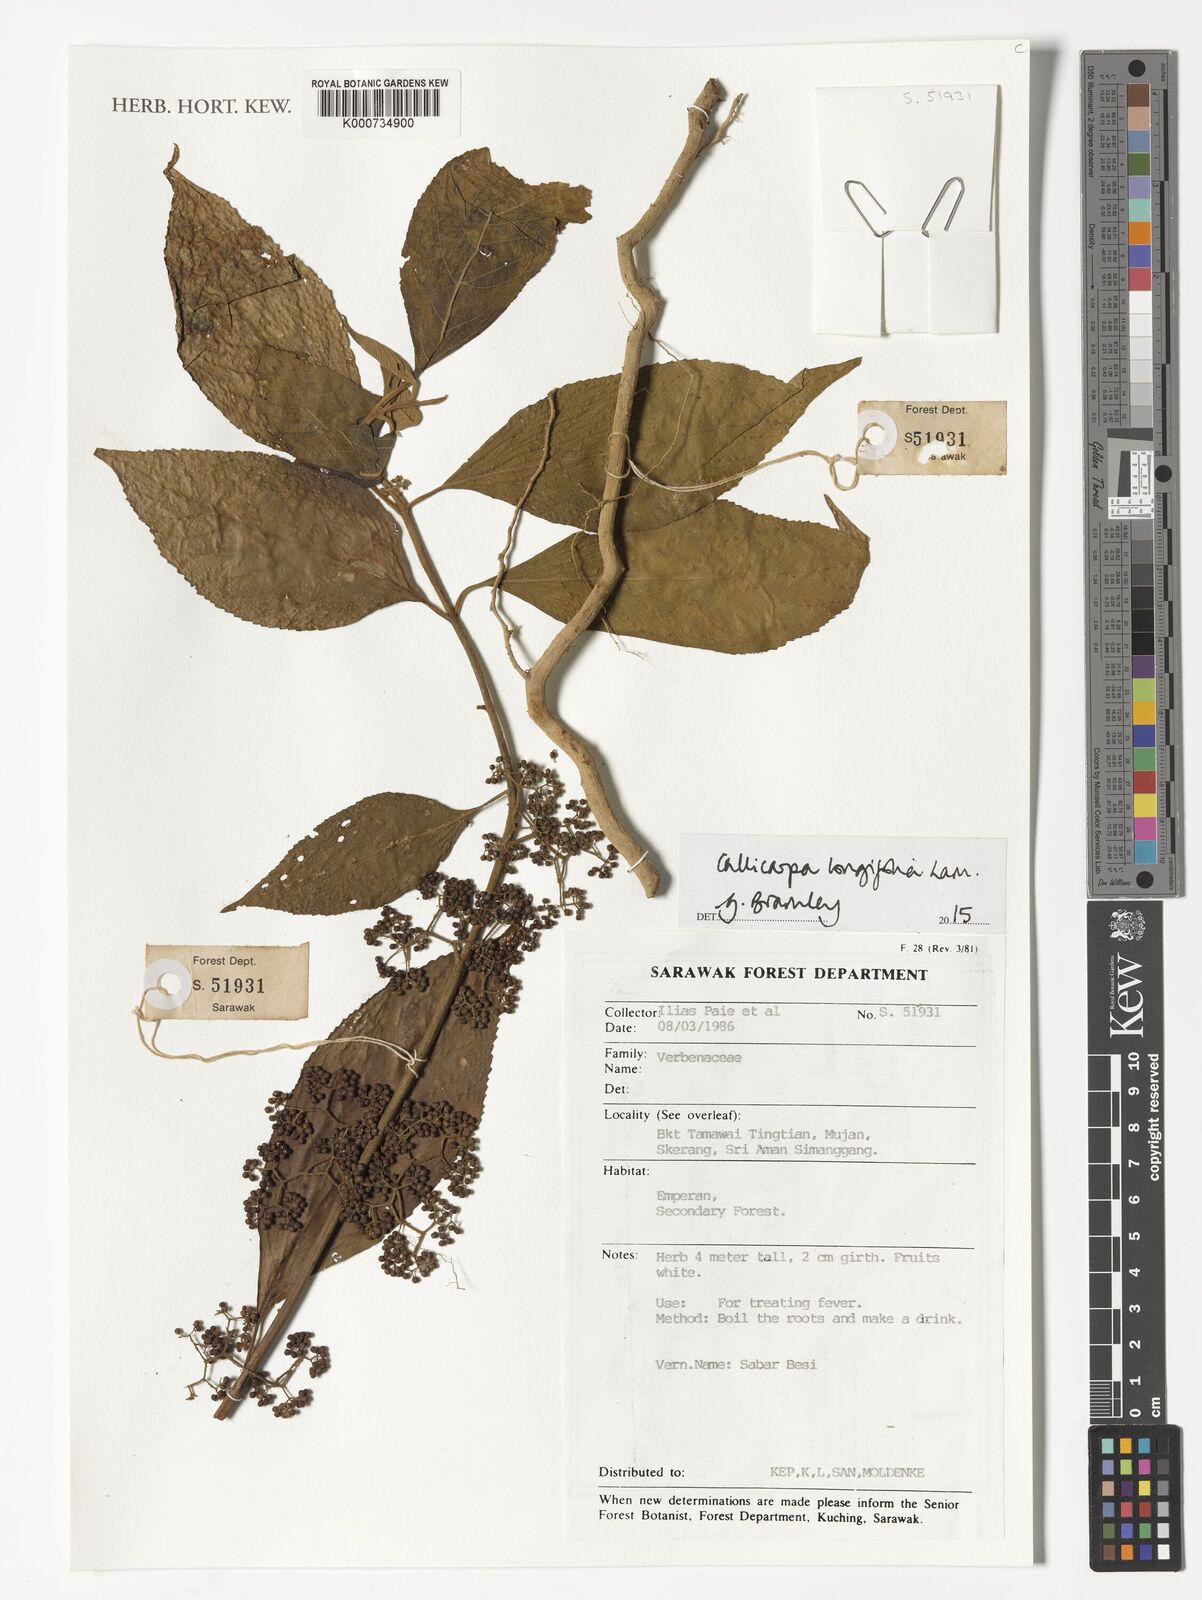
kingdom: Plantae
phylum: Tracheophyta
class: Magnoliopsida
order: Lamiales
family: Lamiaceae
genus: Callicarpa
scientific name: Callicarpa longifolia
